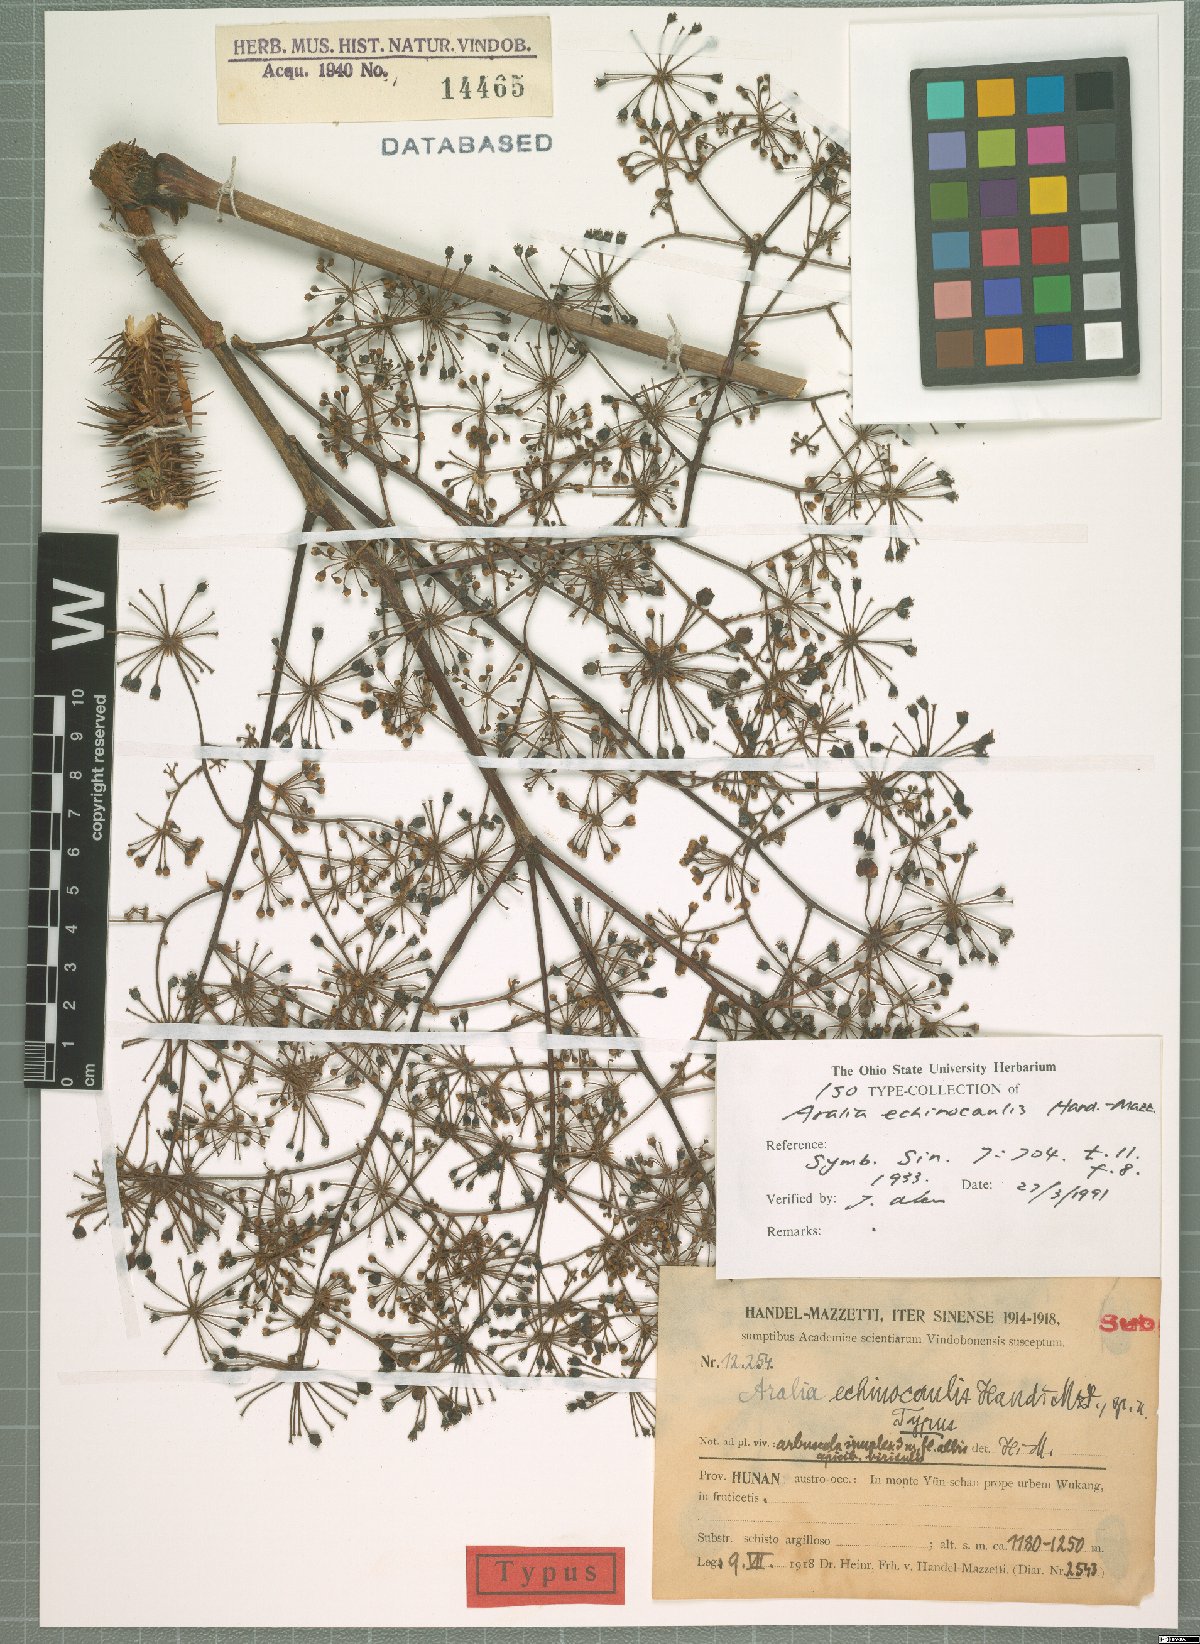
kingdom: Plantae
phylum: Tracheophyta
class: Magnoliopsida
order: Apiales
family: Araliaceae
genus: Aralia
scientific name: Aralia echinocaulis
